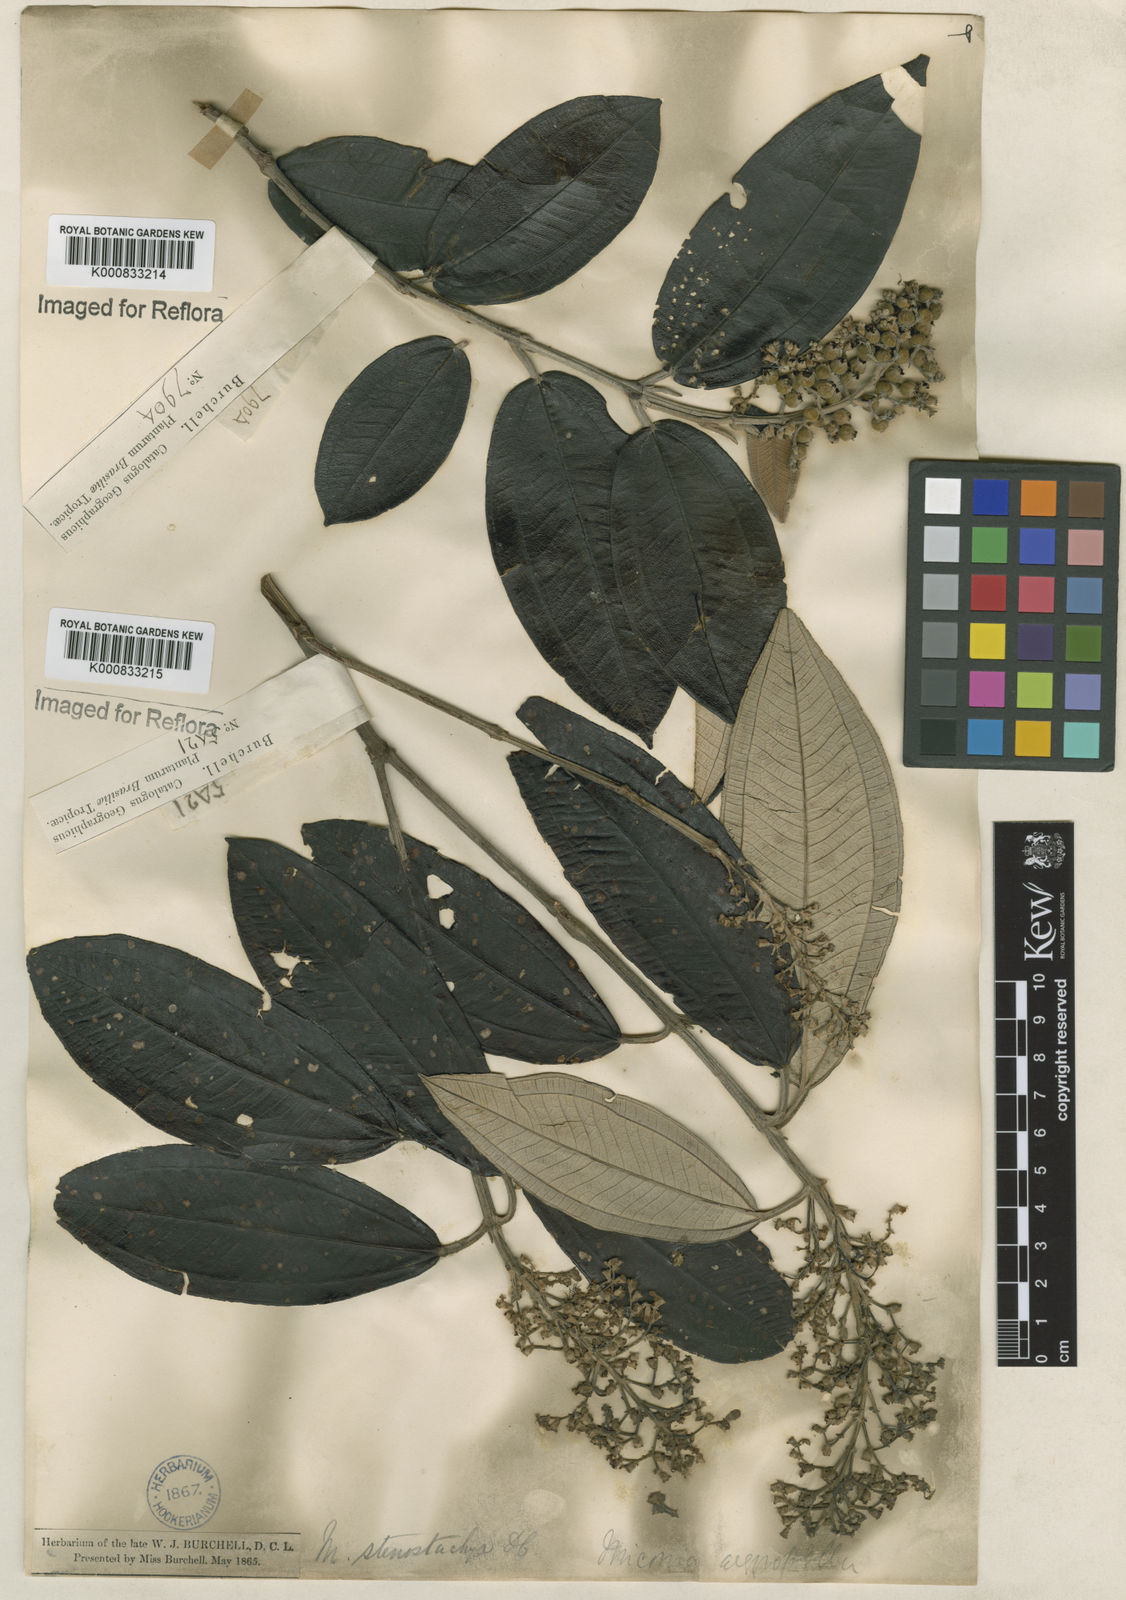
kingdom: Plantae
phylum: Tracheophyta
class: Magnoliopsida
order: Myrtales
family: Melastomataceae
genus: Miconia
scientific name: Miconia stenostachya
